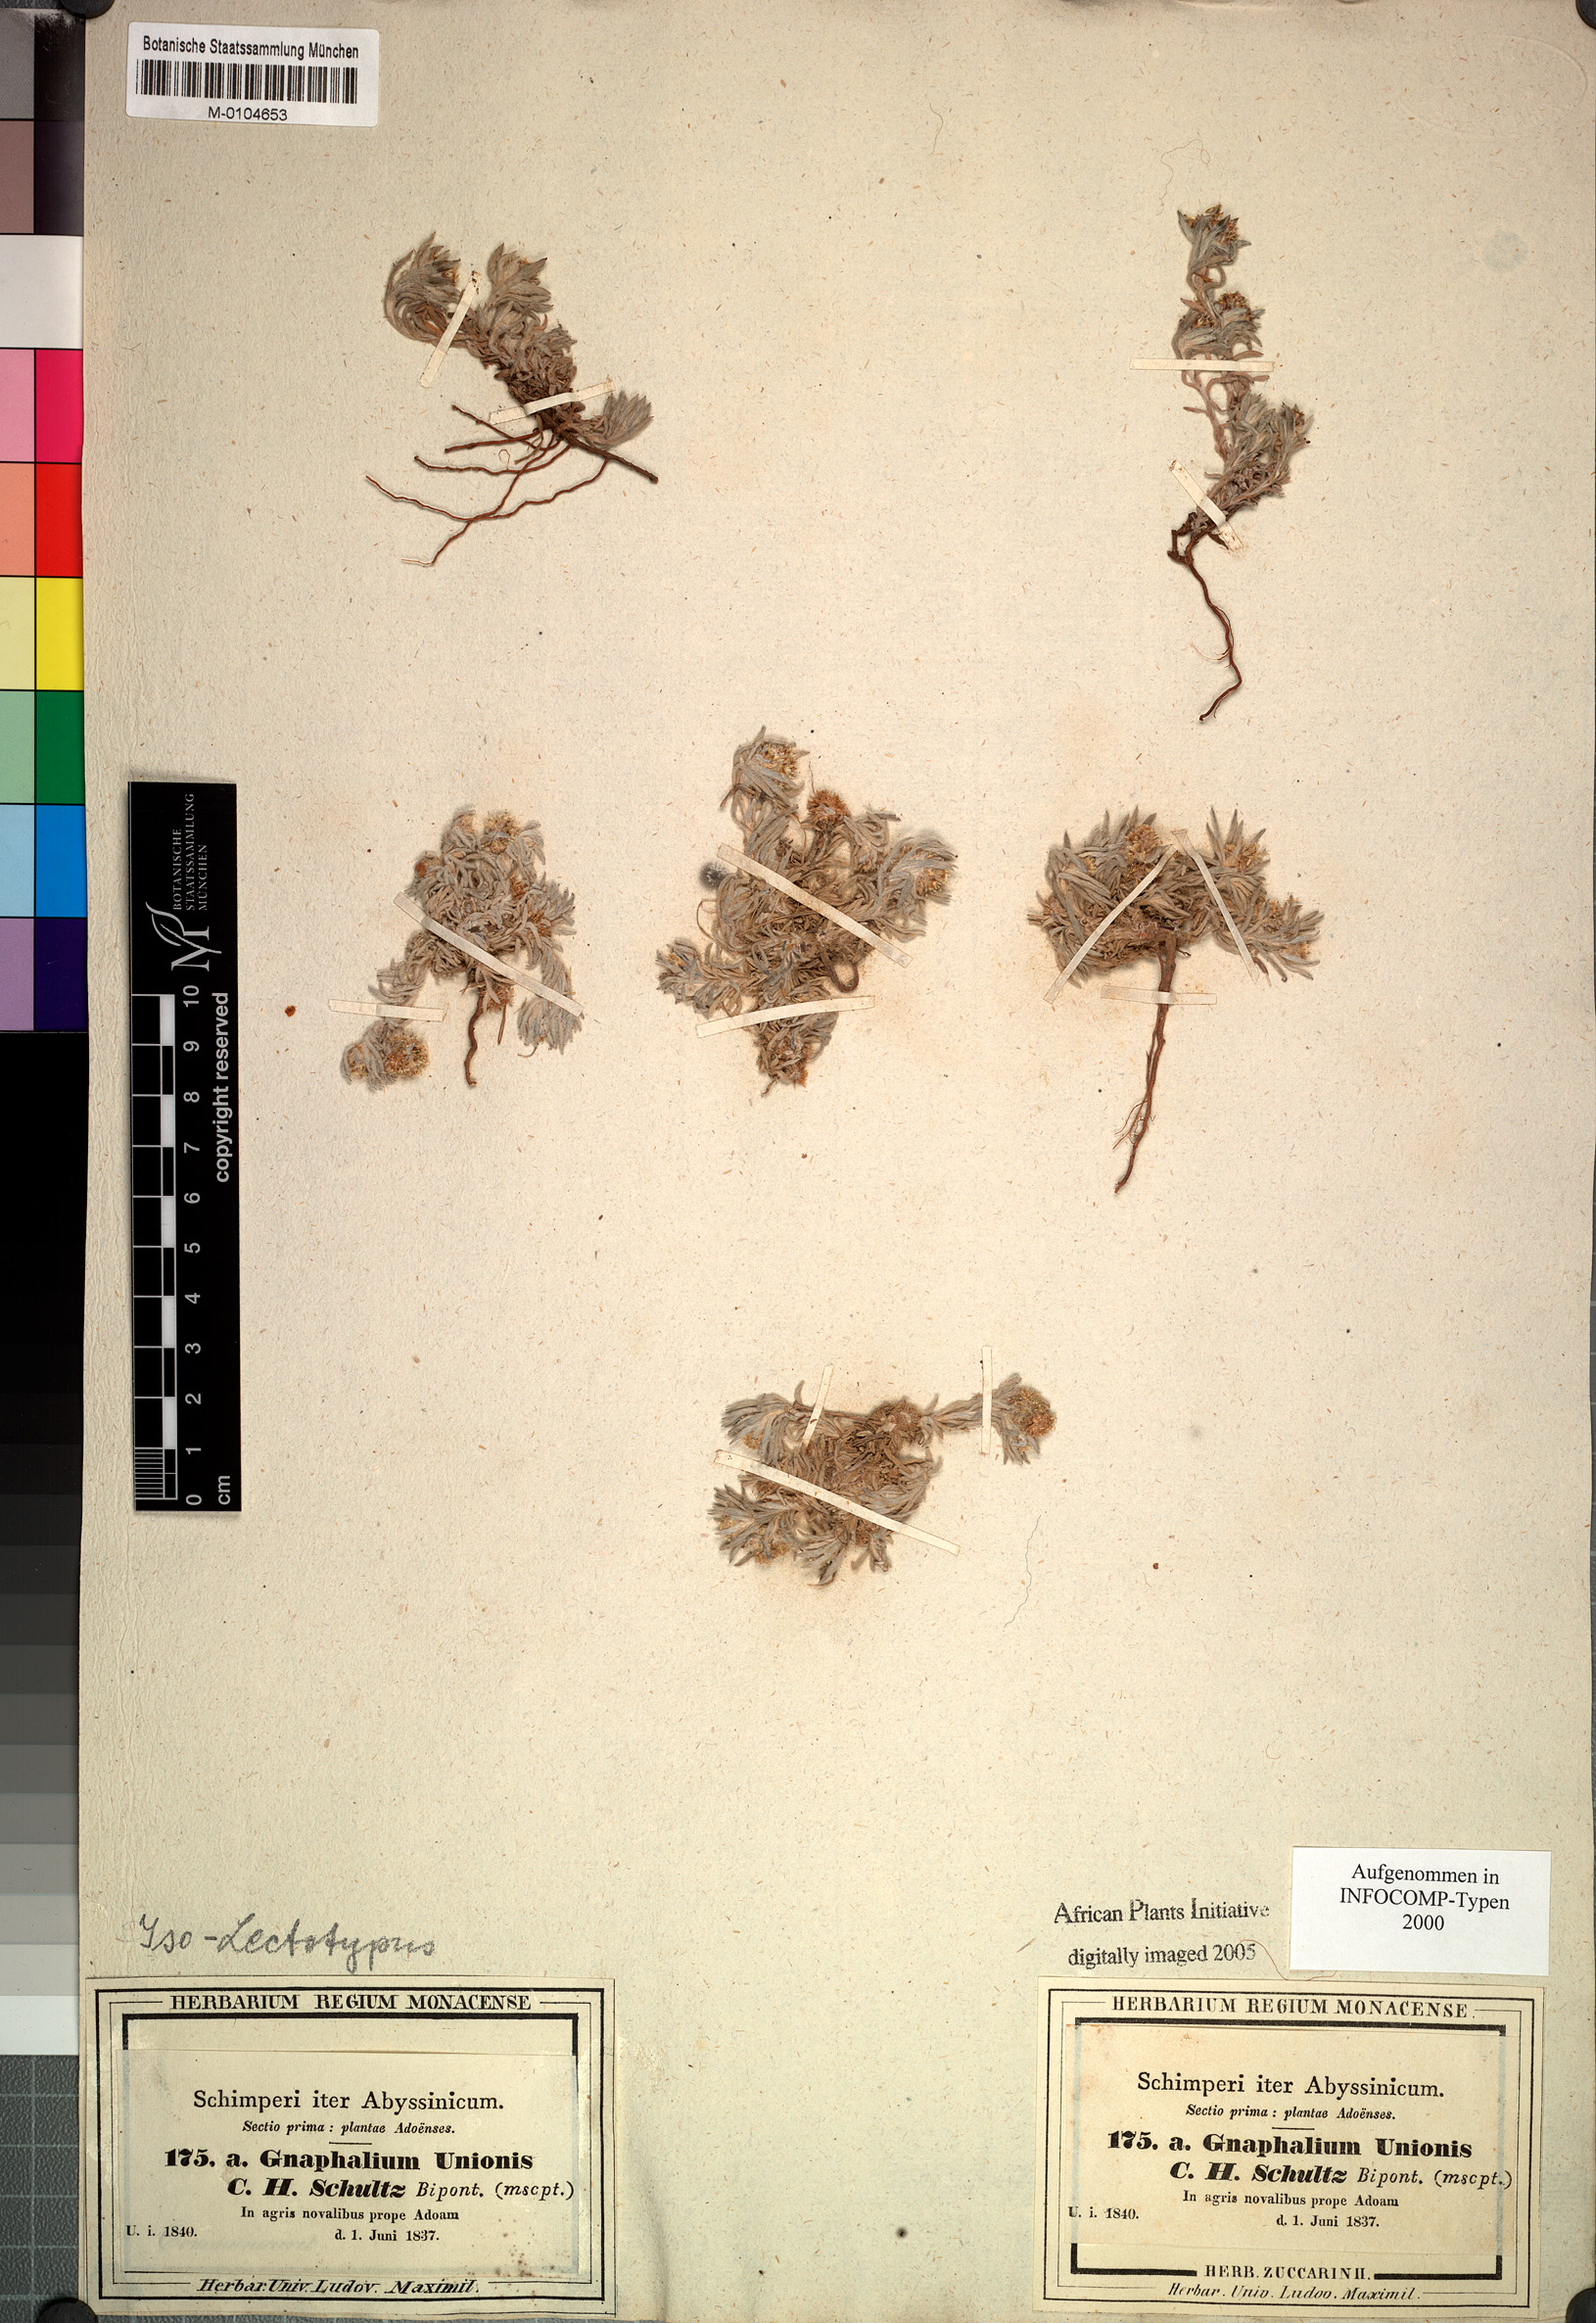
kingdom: Plantae
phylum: Tracheophyta
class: Magnoliopsida
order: Asterales
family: Asteraceae
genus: Gnaphalium
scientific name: Gnaphalium unionis
